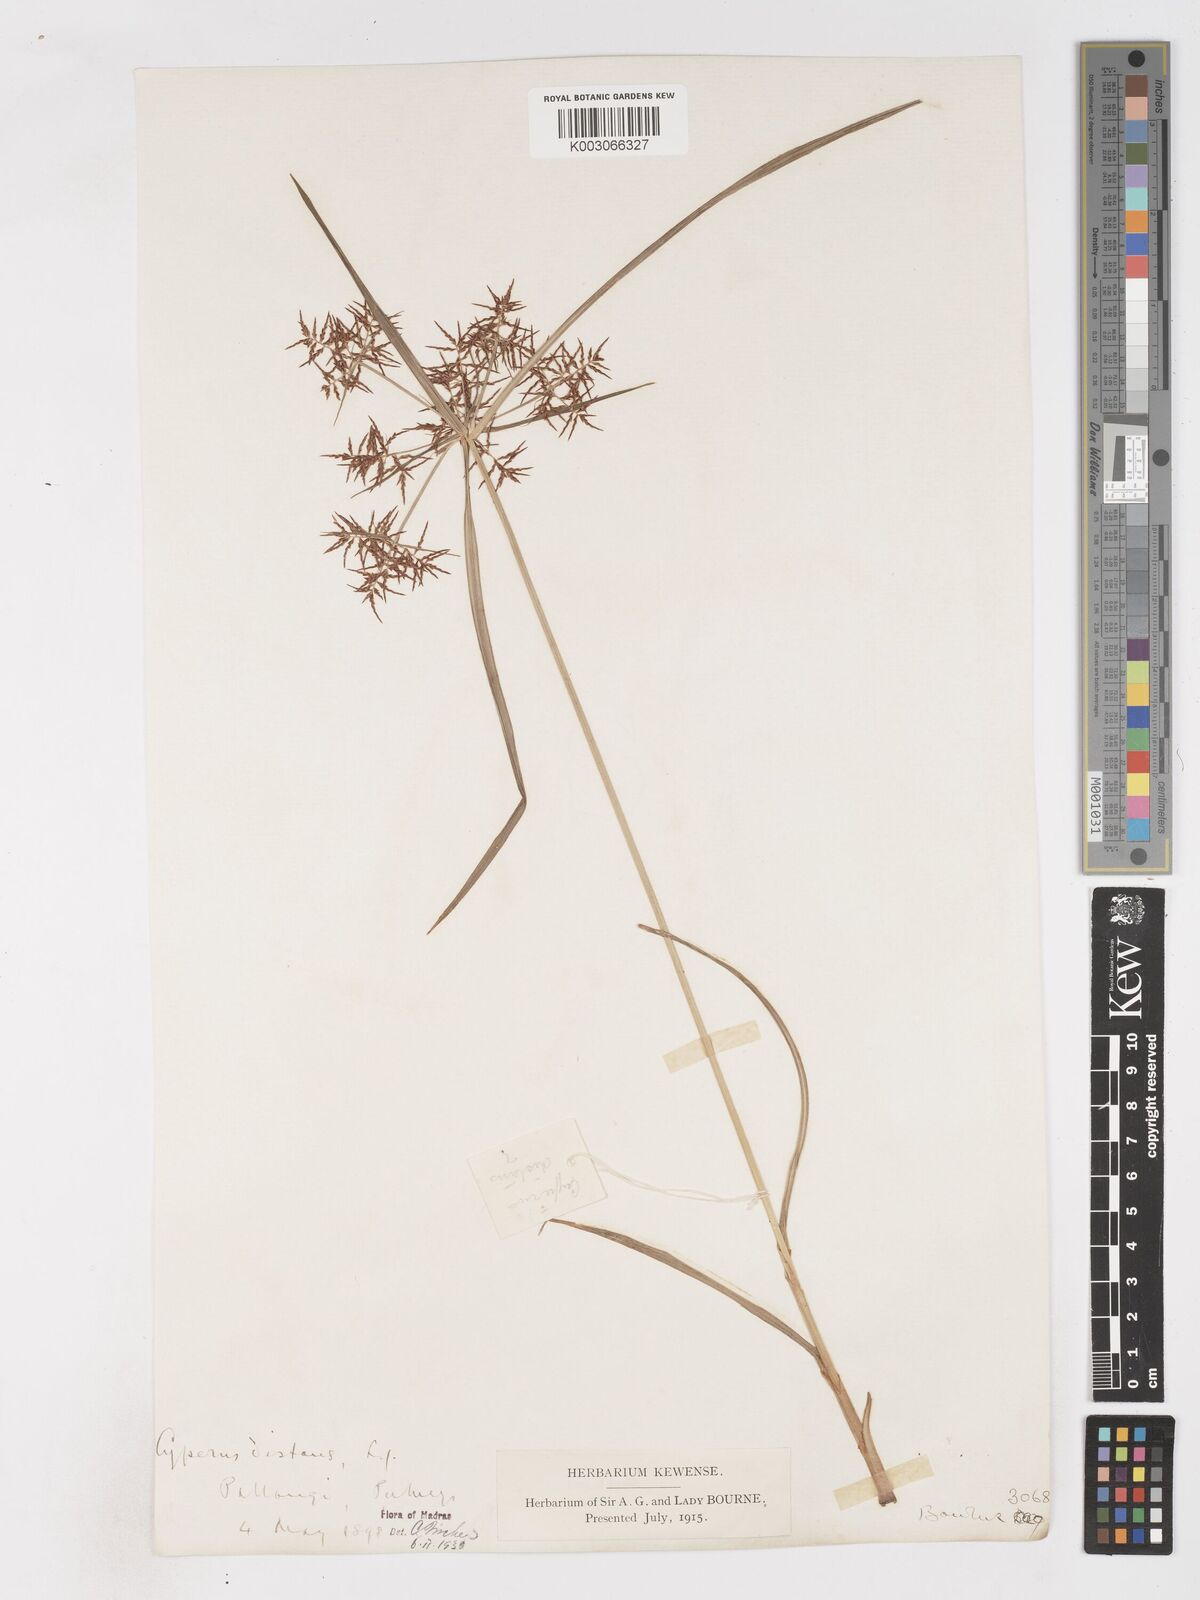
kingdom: Plantae
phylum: Tracheophyta
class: Liliopsida
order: Poales
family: Cyperaceae
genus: Cyperus
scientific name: Cyperus distans
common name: Slender cyperus
